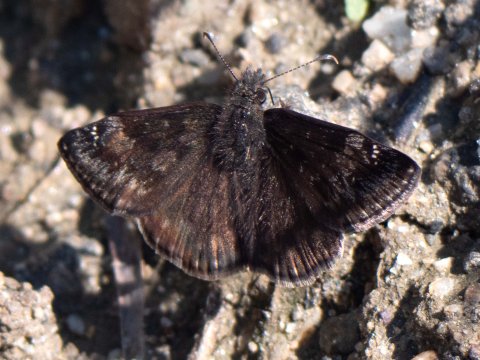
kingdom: Animalia
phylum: Arthropoda
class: Insecta
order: Lepidoptera
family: Hesperiidae
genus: Gesta
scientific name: Gesta
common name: Wild Indigo Duskywing
